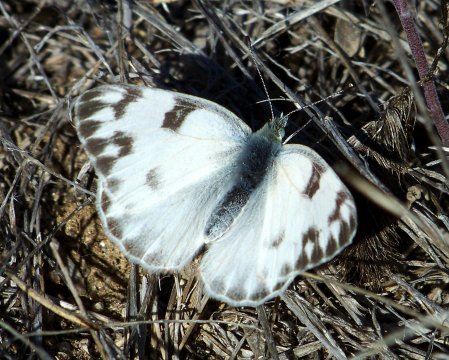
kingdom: Animalia
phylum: Arthropoda
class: Insecta
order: Lepidoptera
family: Pieridae
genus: Pontia
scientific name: Pontia protodice
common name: Checkered White
